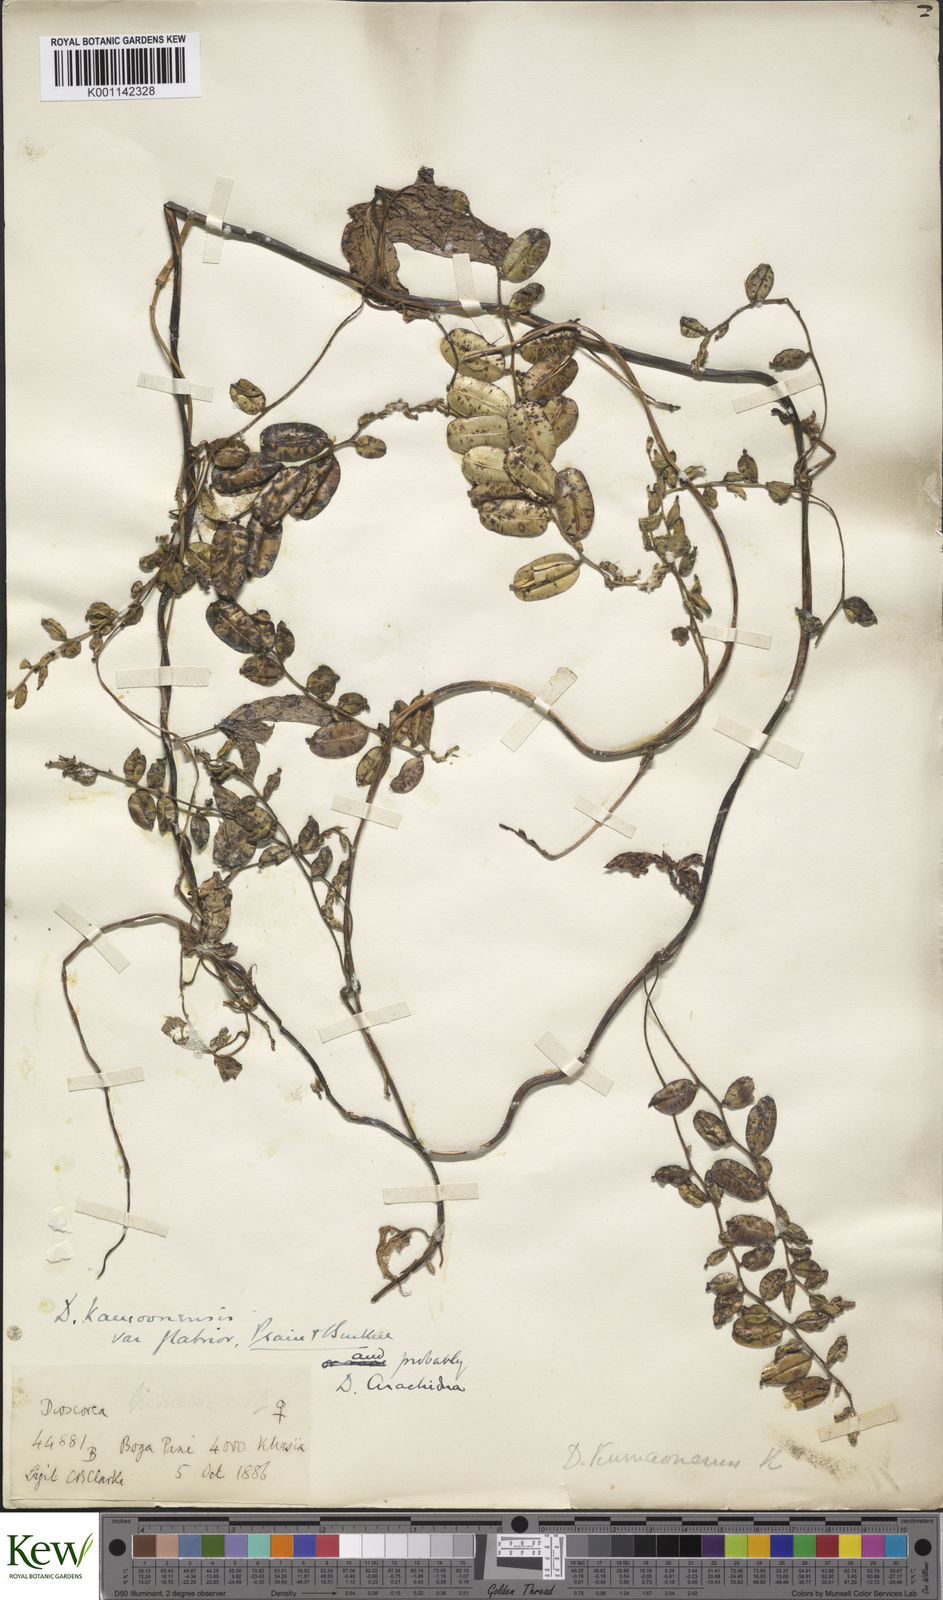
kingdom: Plantae
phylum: Tracheophyta
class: Liliopsida
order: Dioscoreales
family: Dioscoreaceae
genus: Dioscorea
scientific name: Dioscorea kamoonensis
